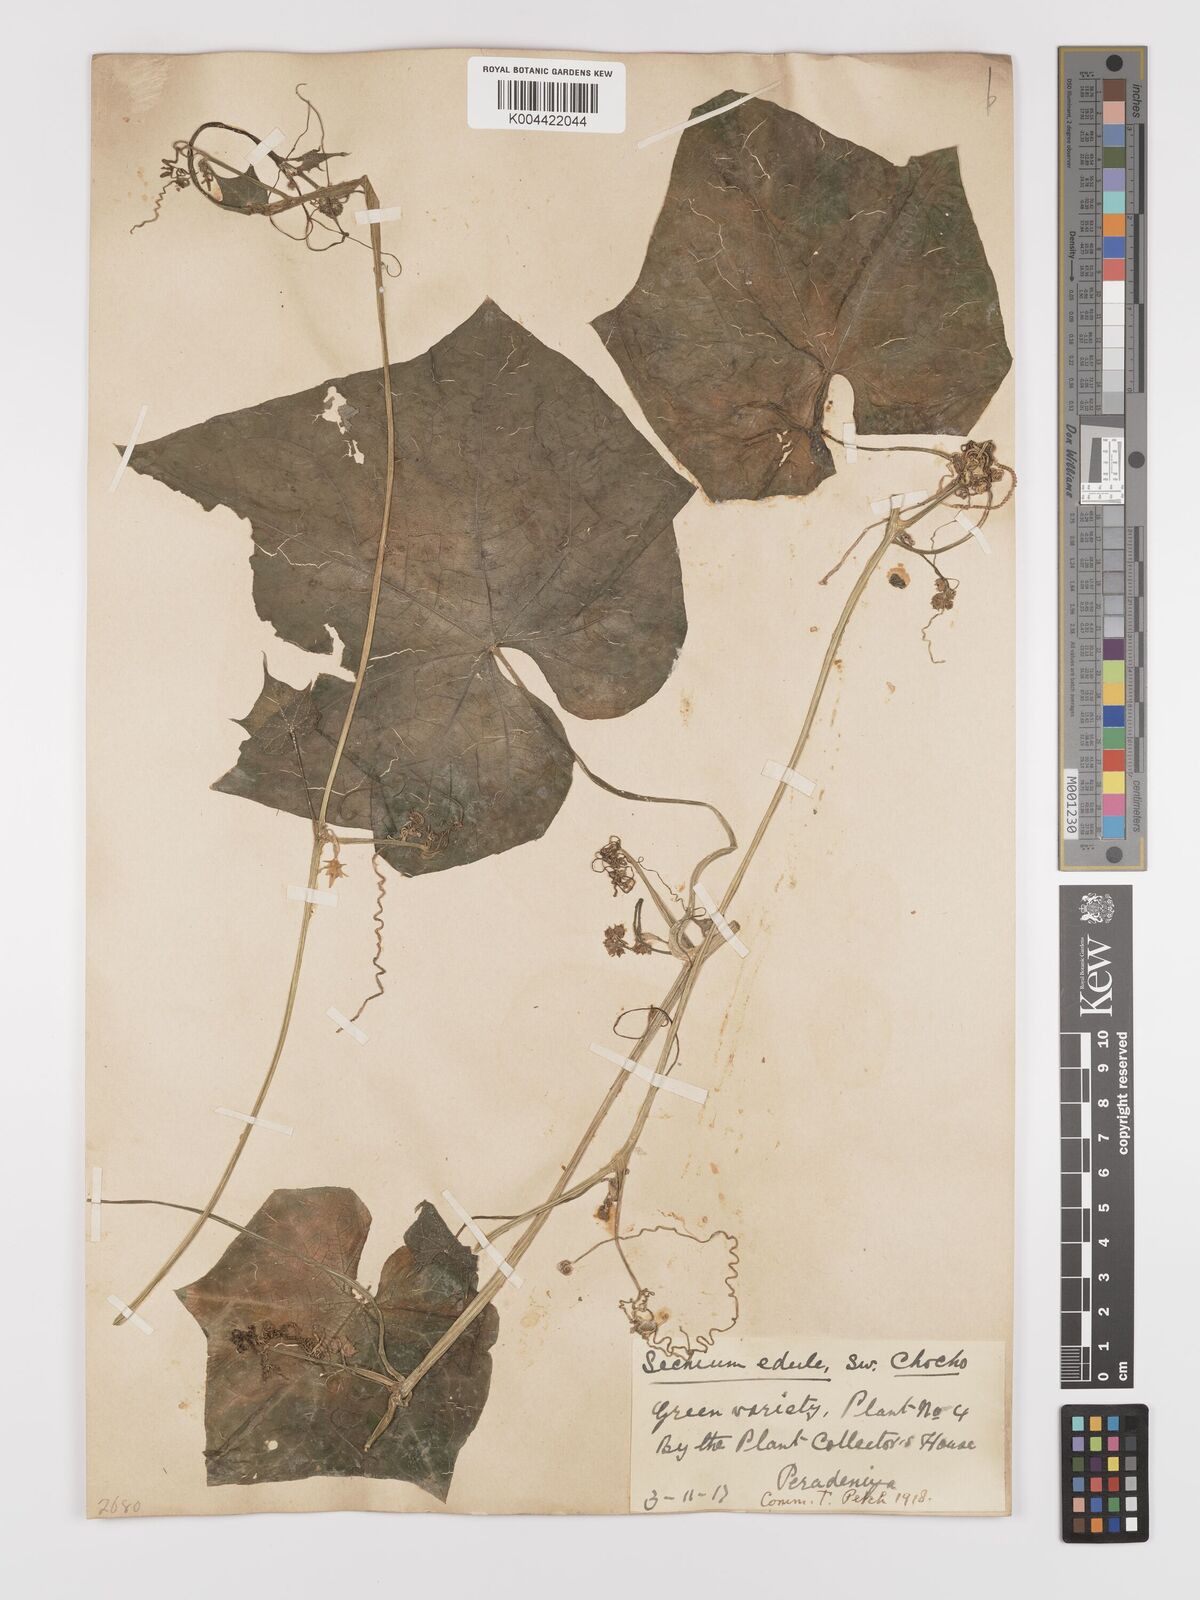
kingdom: Plantae
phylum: Tracheophyta
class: Magnoliopsida
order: Cucurbitales
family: Cucurbitaceae
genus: Sechium
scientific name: Sechium edule
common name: Chayote
